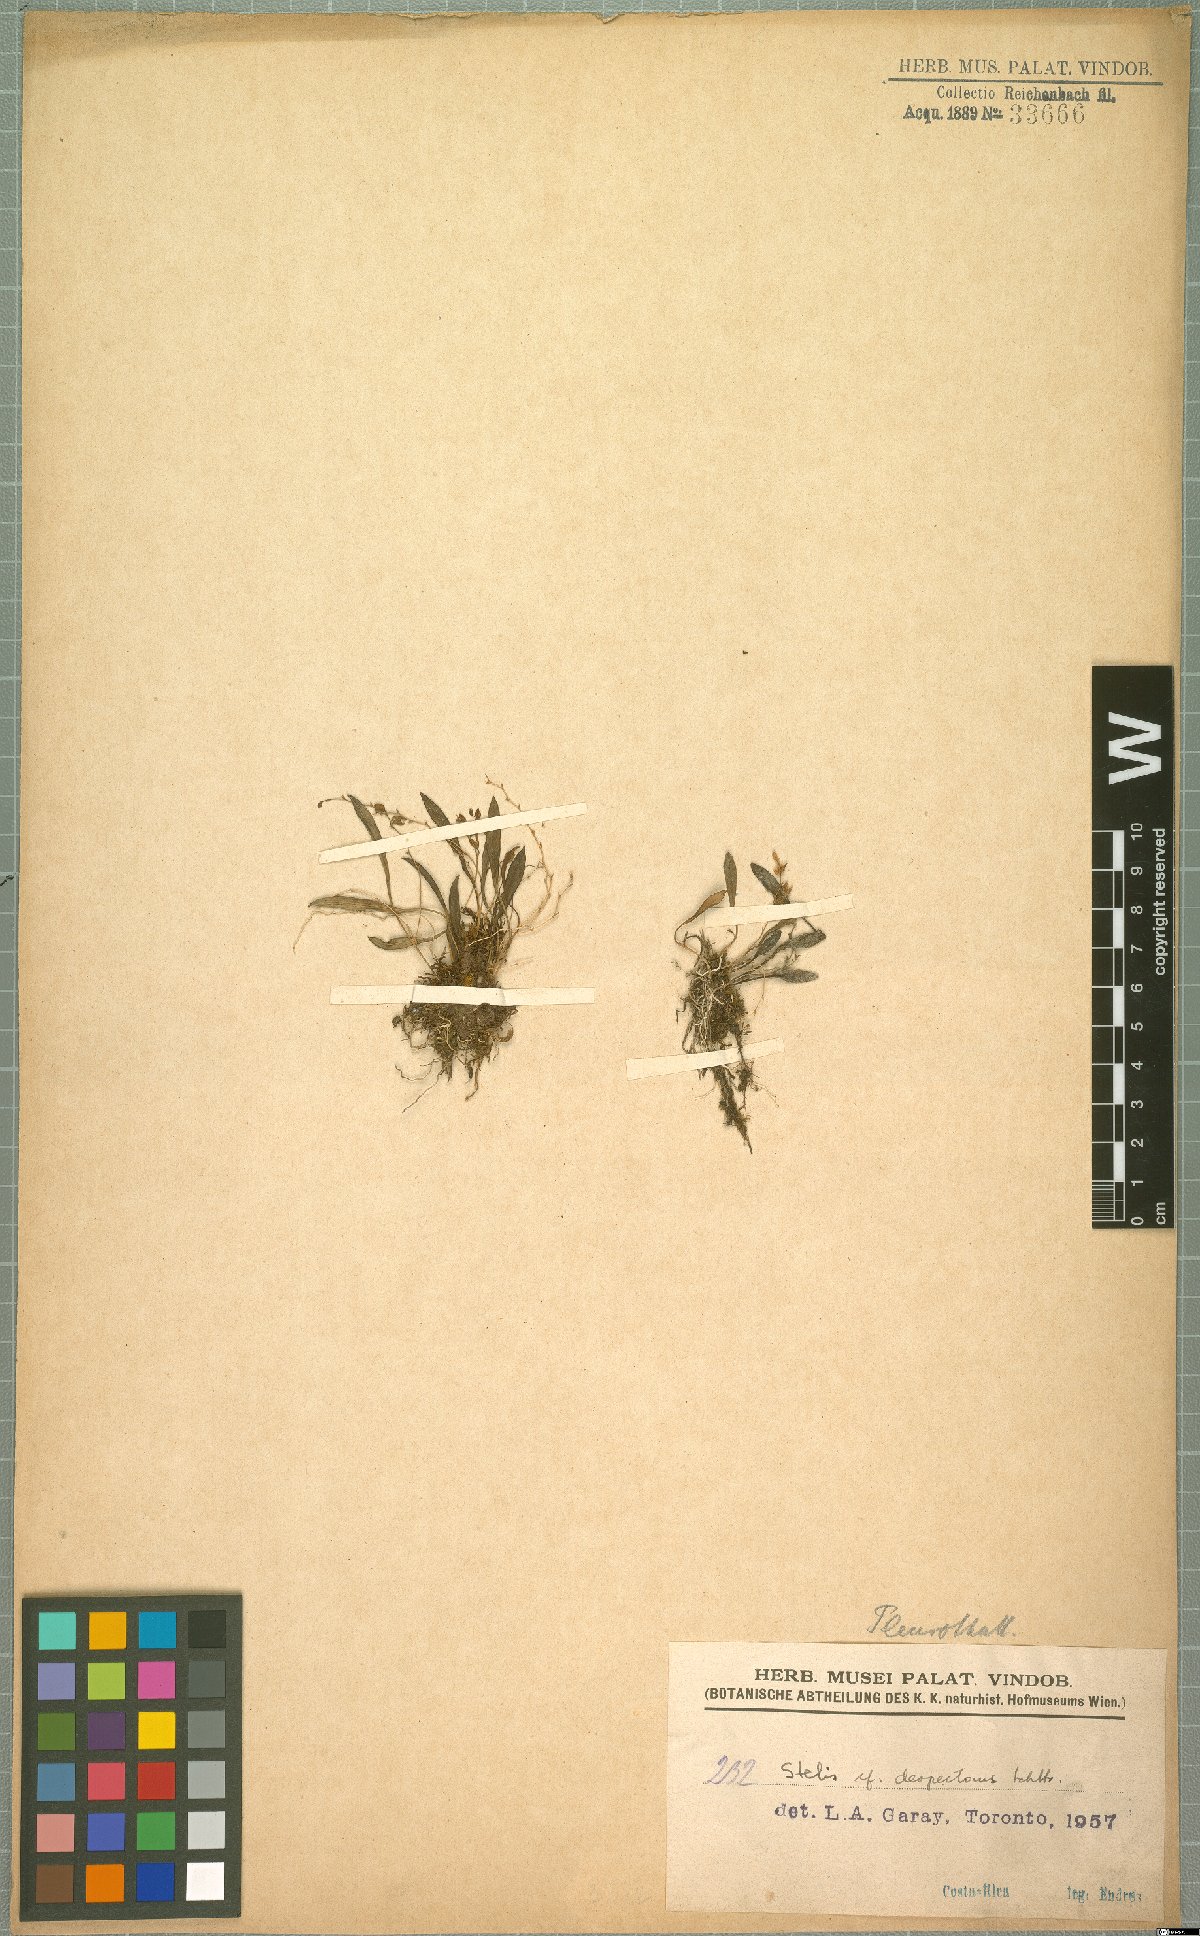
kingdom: Plantae
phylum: Tracheophyta
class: Liliopsida
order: Asparagales
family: Orchidaceae
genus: Stelis
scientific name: Stelis despectans
